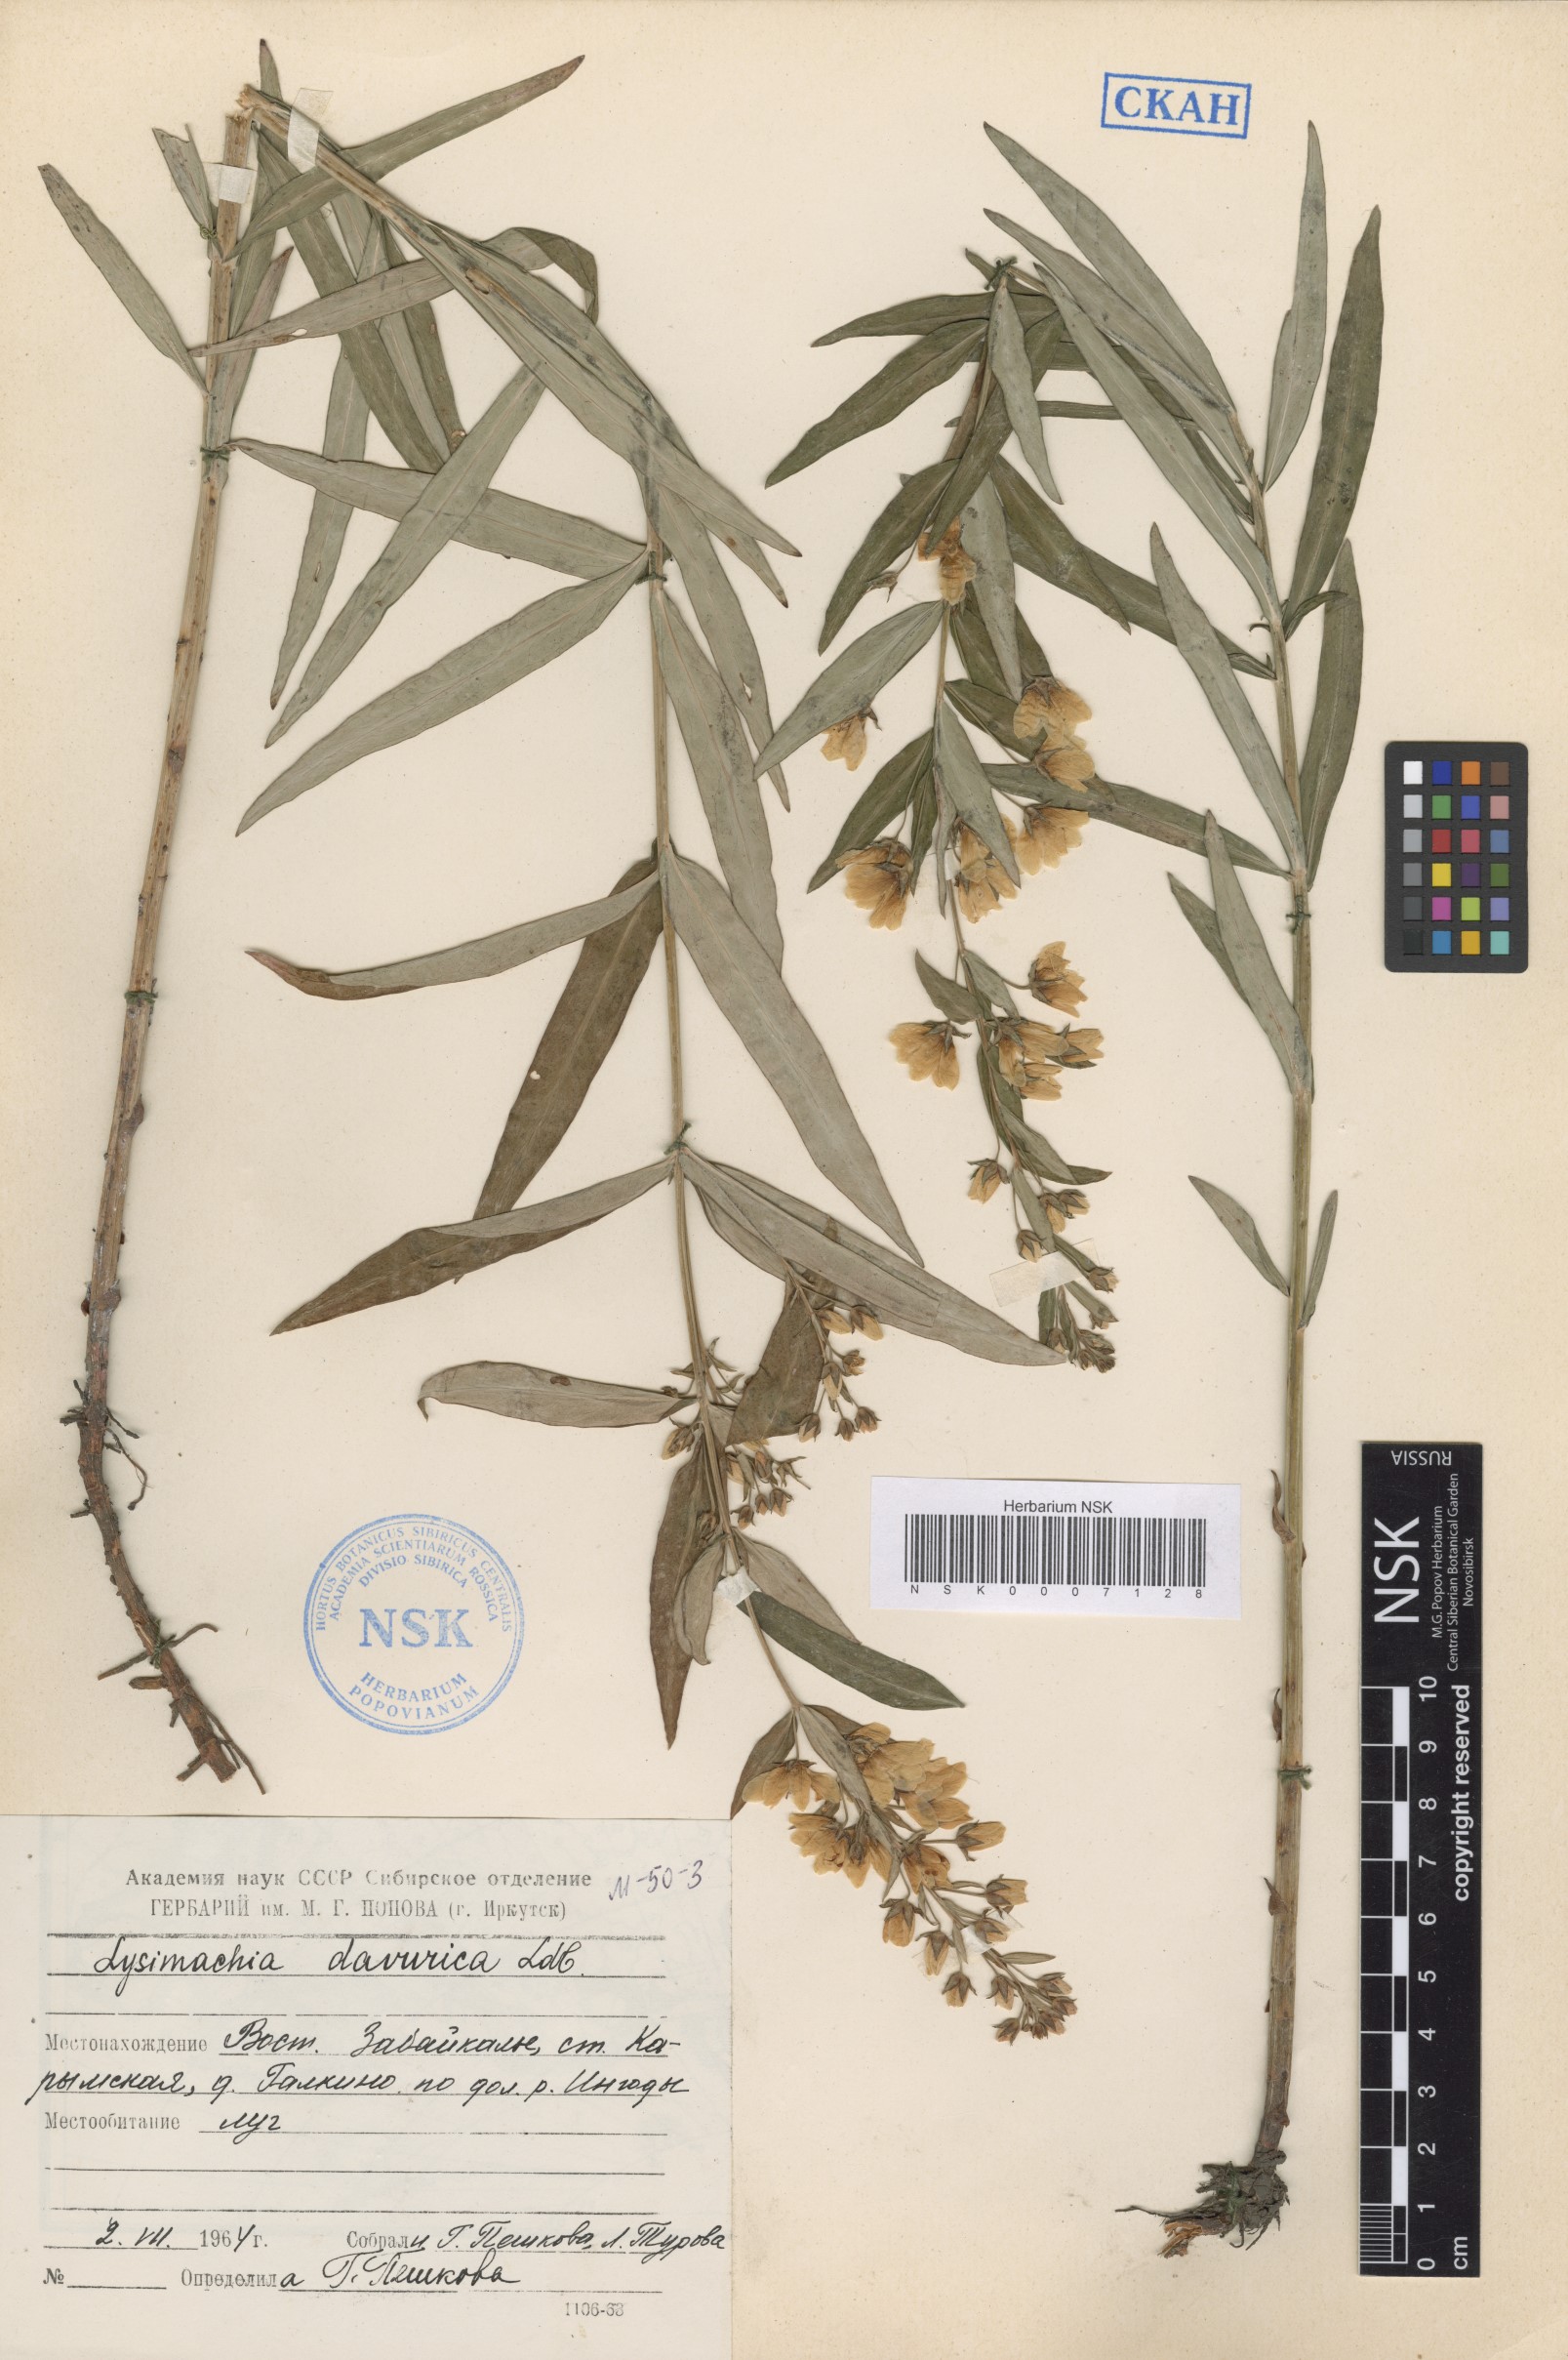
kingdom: Plantae
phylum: Tracheophyta
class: Magnoliopsida
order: Ericales
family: Primulaceae
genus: Lysimachia
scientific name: Lysimachia davurica
